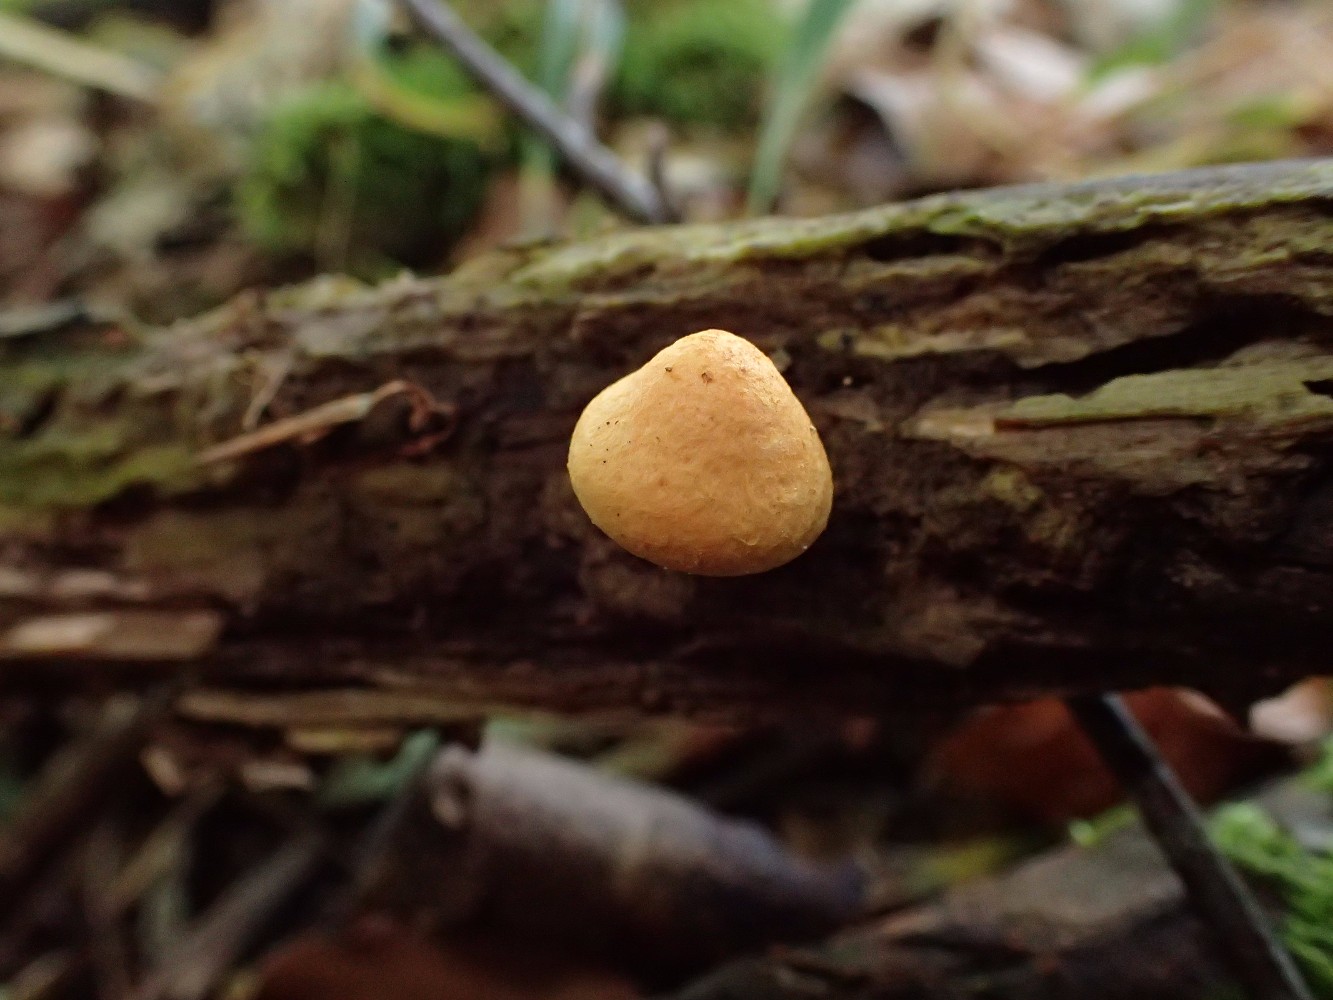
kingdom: Fungi
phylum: Basidiomycota
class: Agaricomycetes
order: Agaricales
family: Strophariaceae
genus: Pholiota
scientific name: Pholiota tuberculosa
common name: finskællet skælhat
